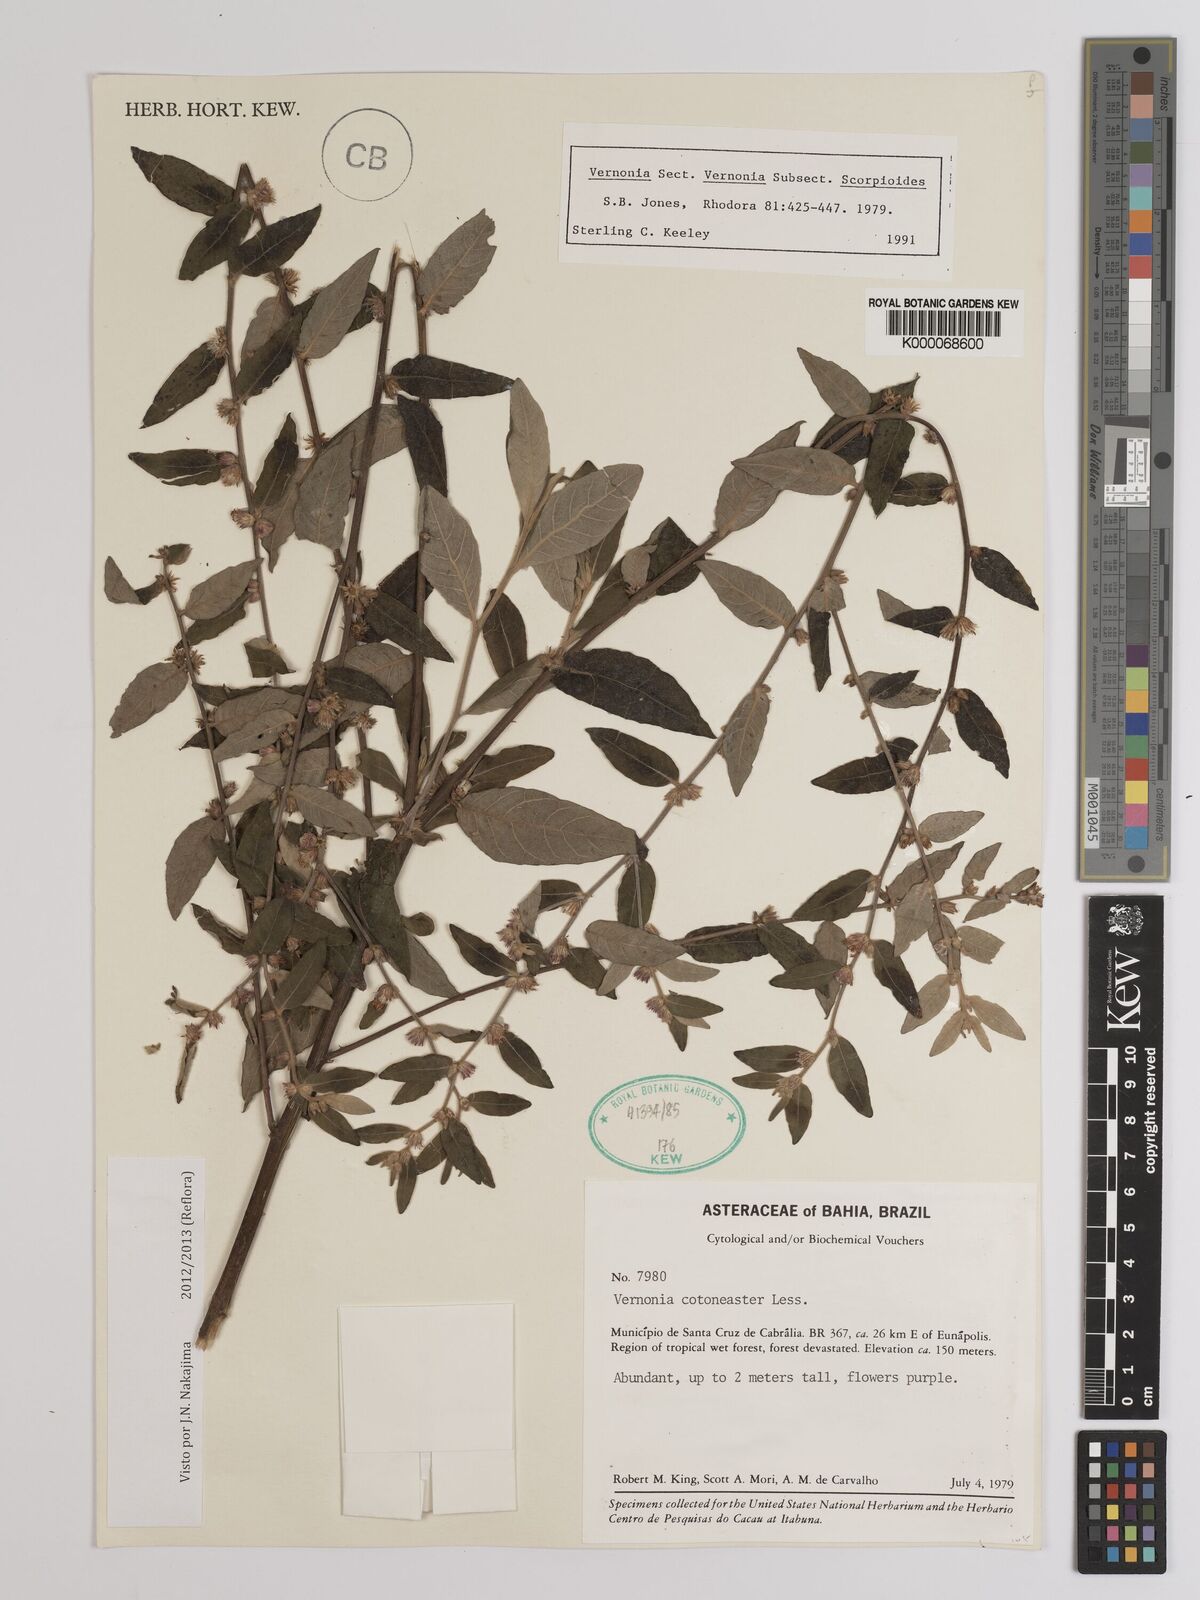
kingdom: Plantae
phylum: Tracheophyta
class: Magnoliopsida
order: Asterales
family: Asteraceae
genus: Lepidaploa
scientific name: Lepidaploa cotoneaster
